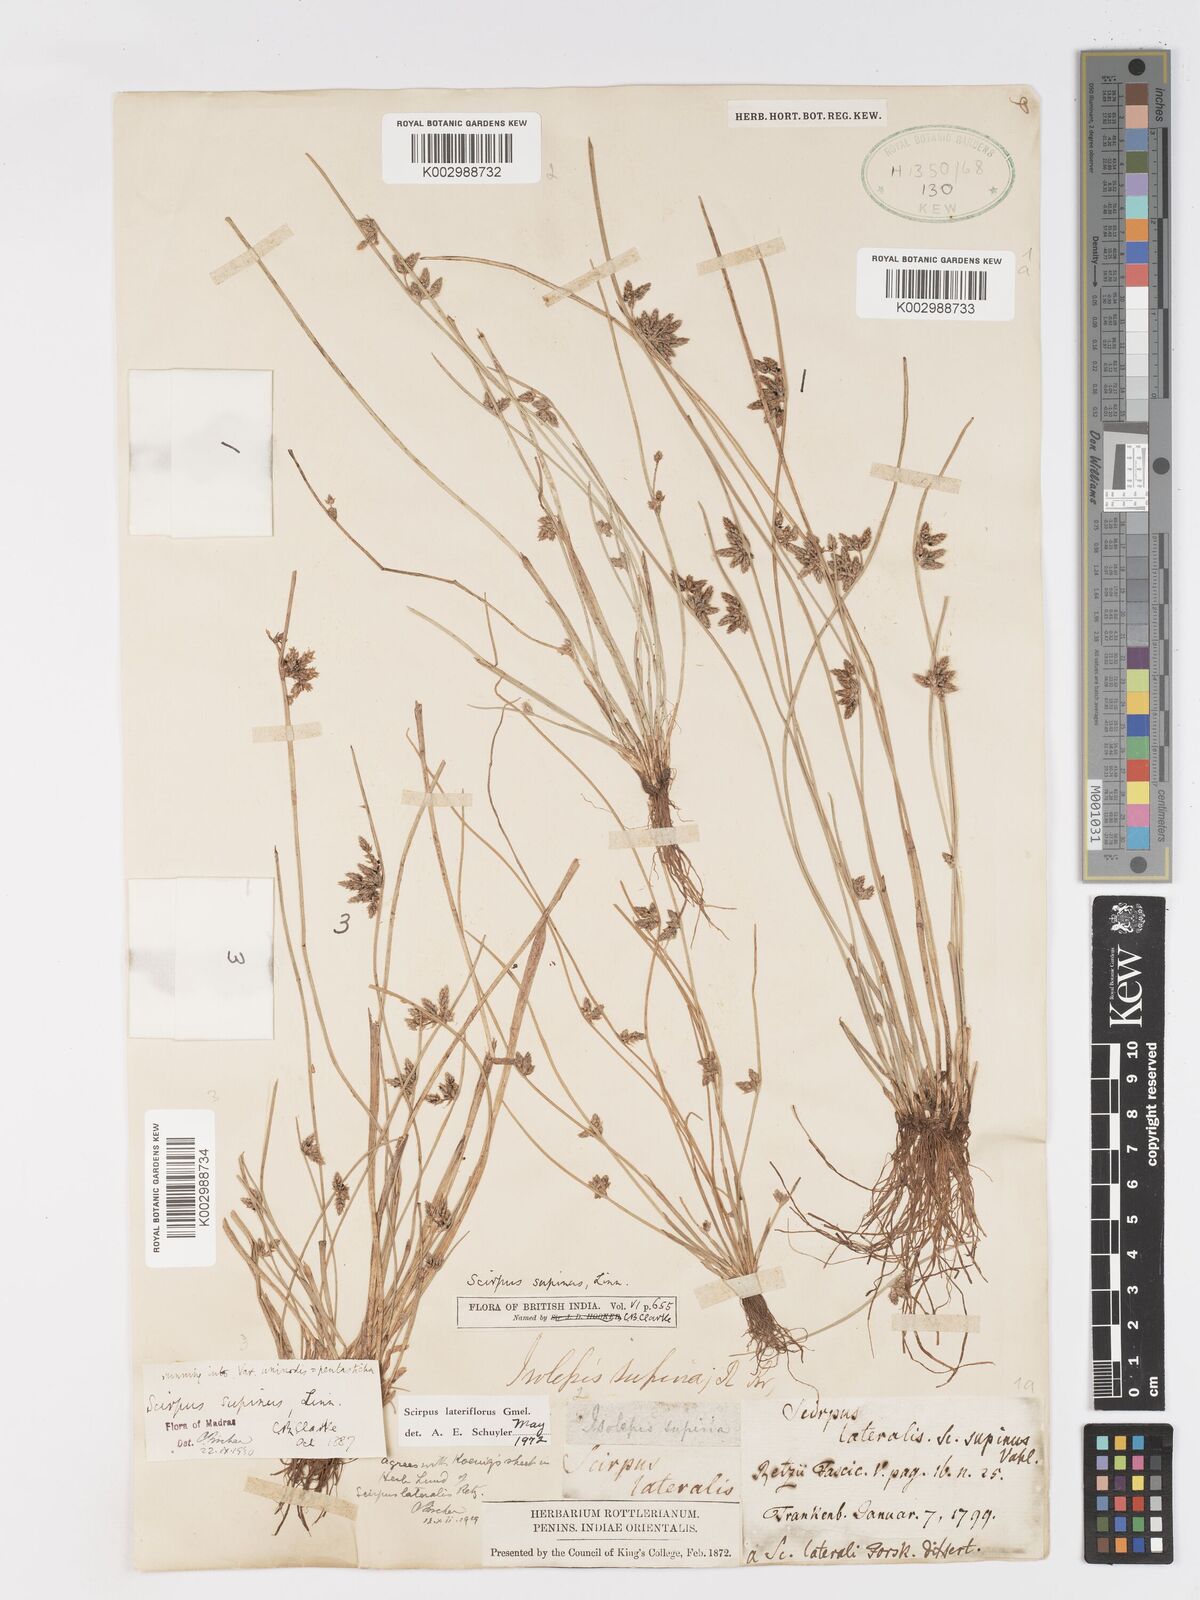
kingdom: Plantae
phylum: Tracheophyta
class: Liliopsida
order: Poales
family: Cyperaceae
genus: Schoenoplectiella
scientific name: Schoenoplectiella lateriflora
